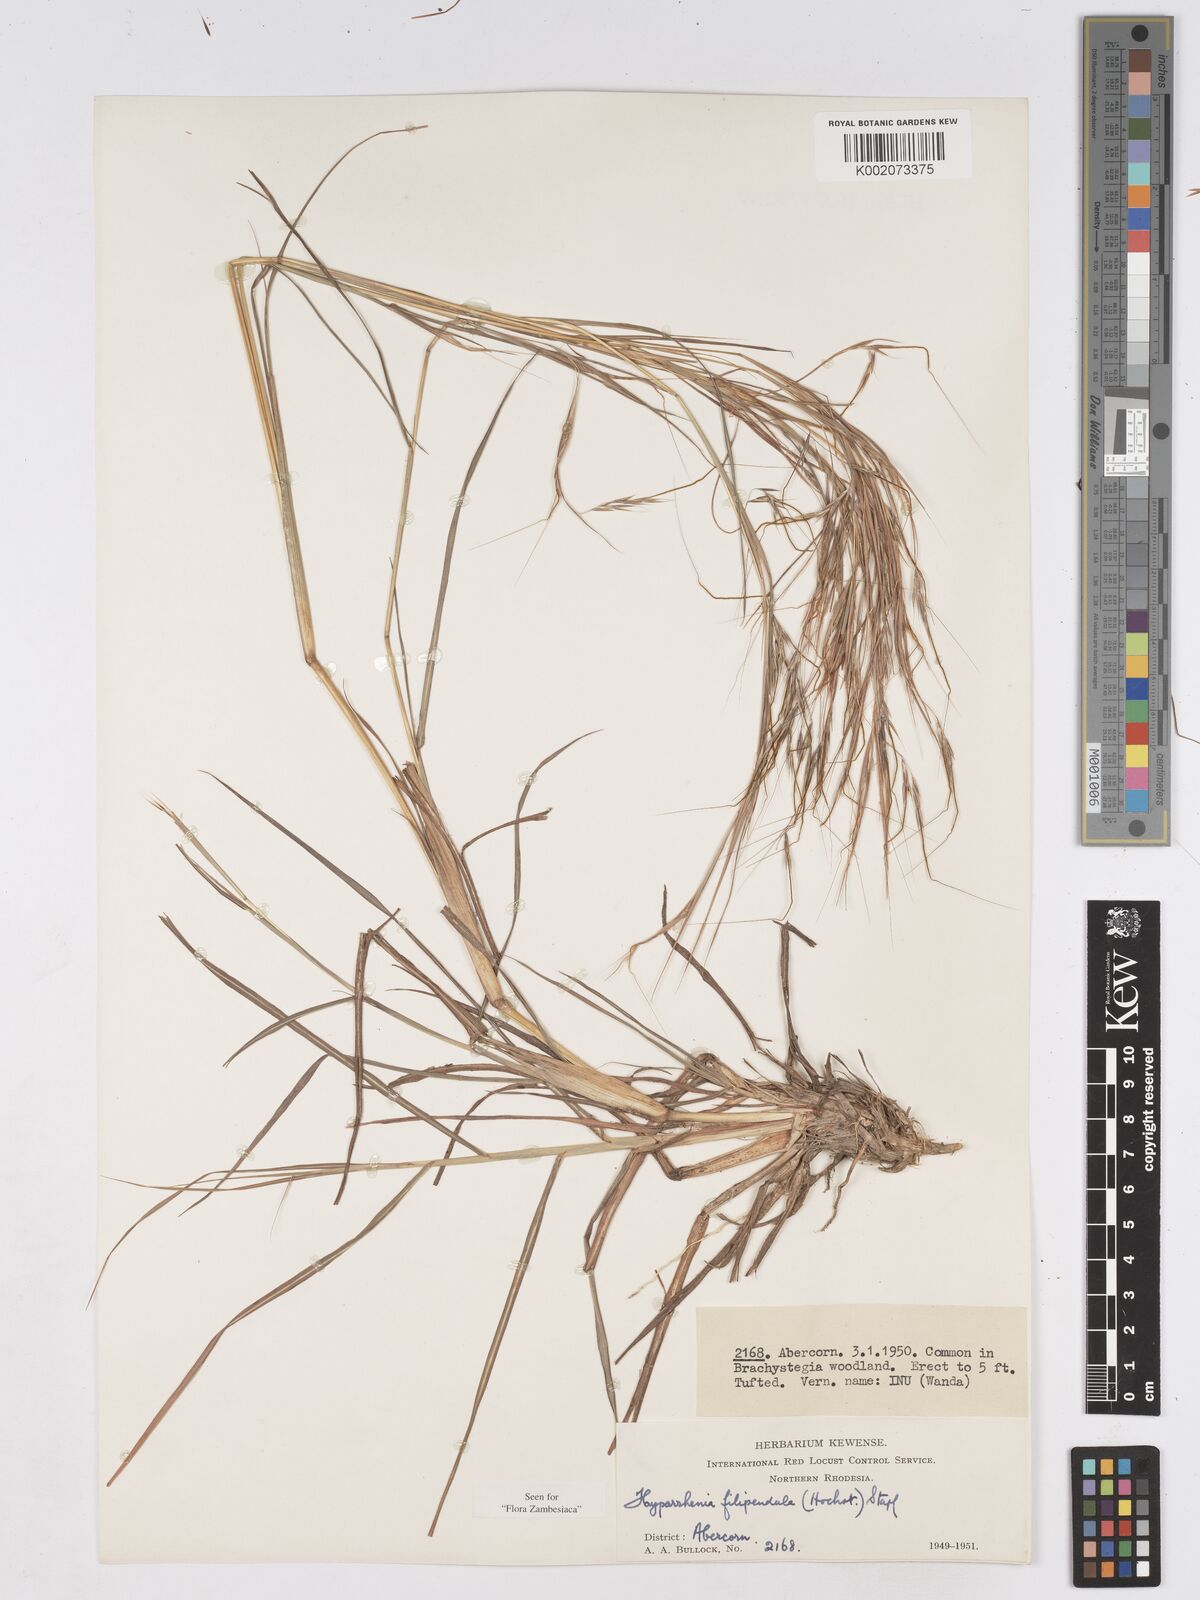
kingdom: Plantae
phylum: Tracheophyta
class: Liliopsida
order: Poales
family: Poaceae
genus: Hyparrhenia
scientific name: Hyparrhenia filipendula
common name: Tambookie grass
